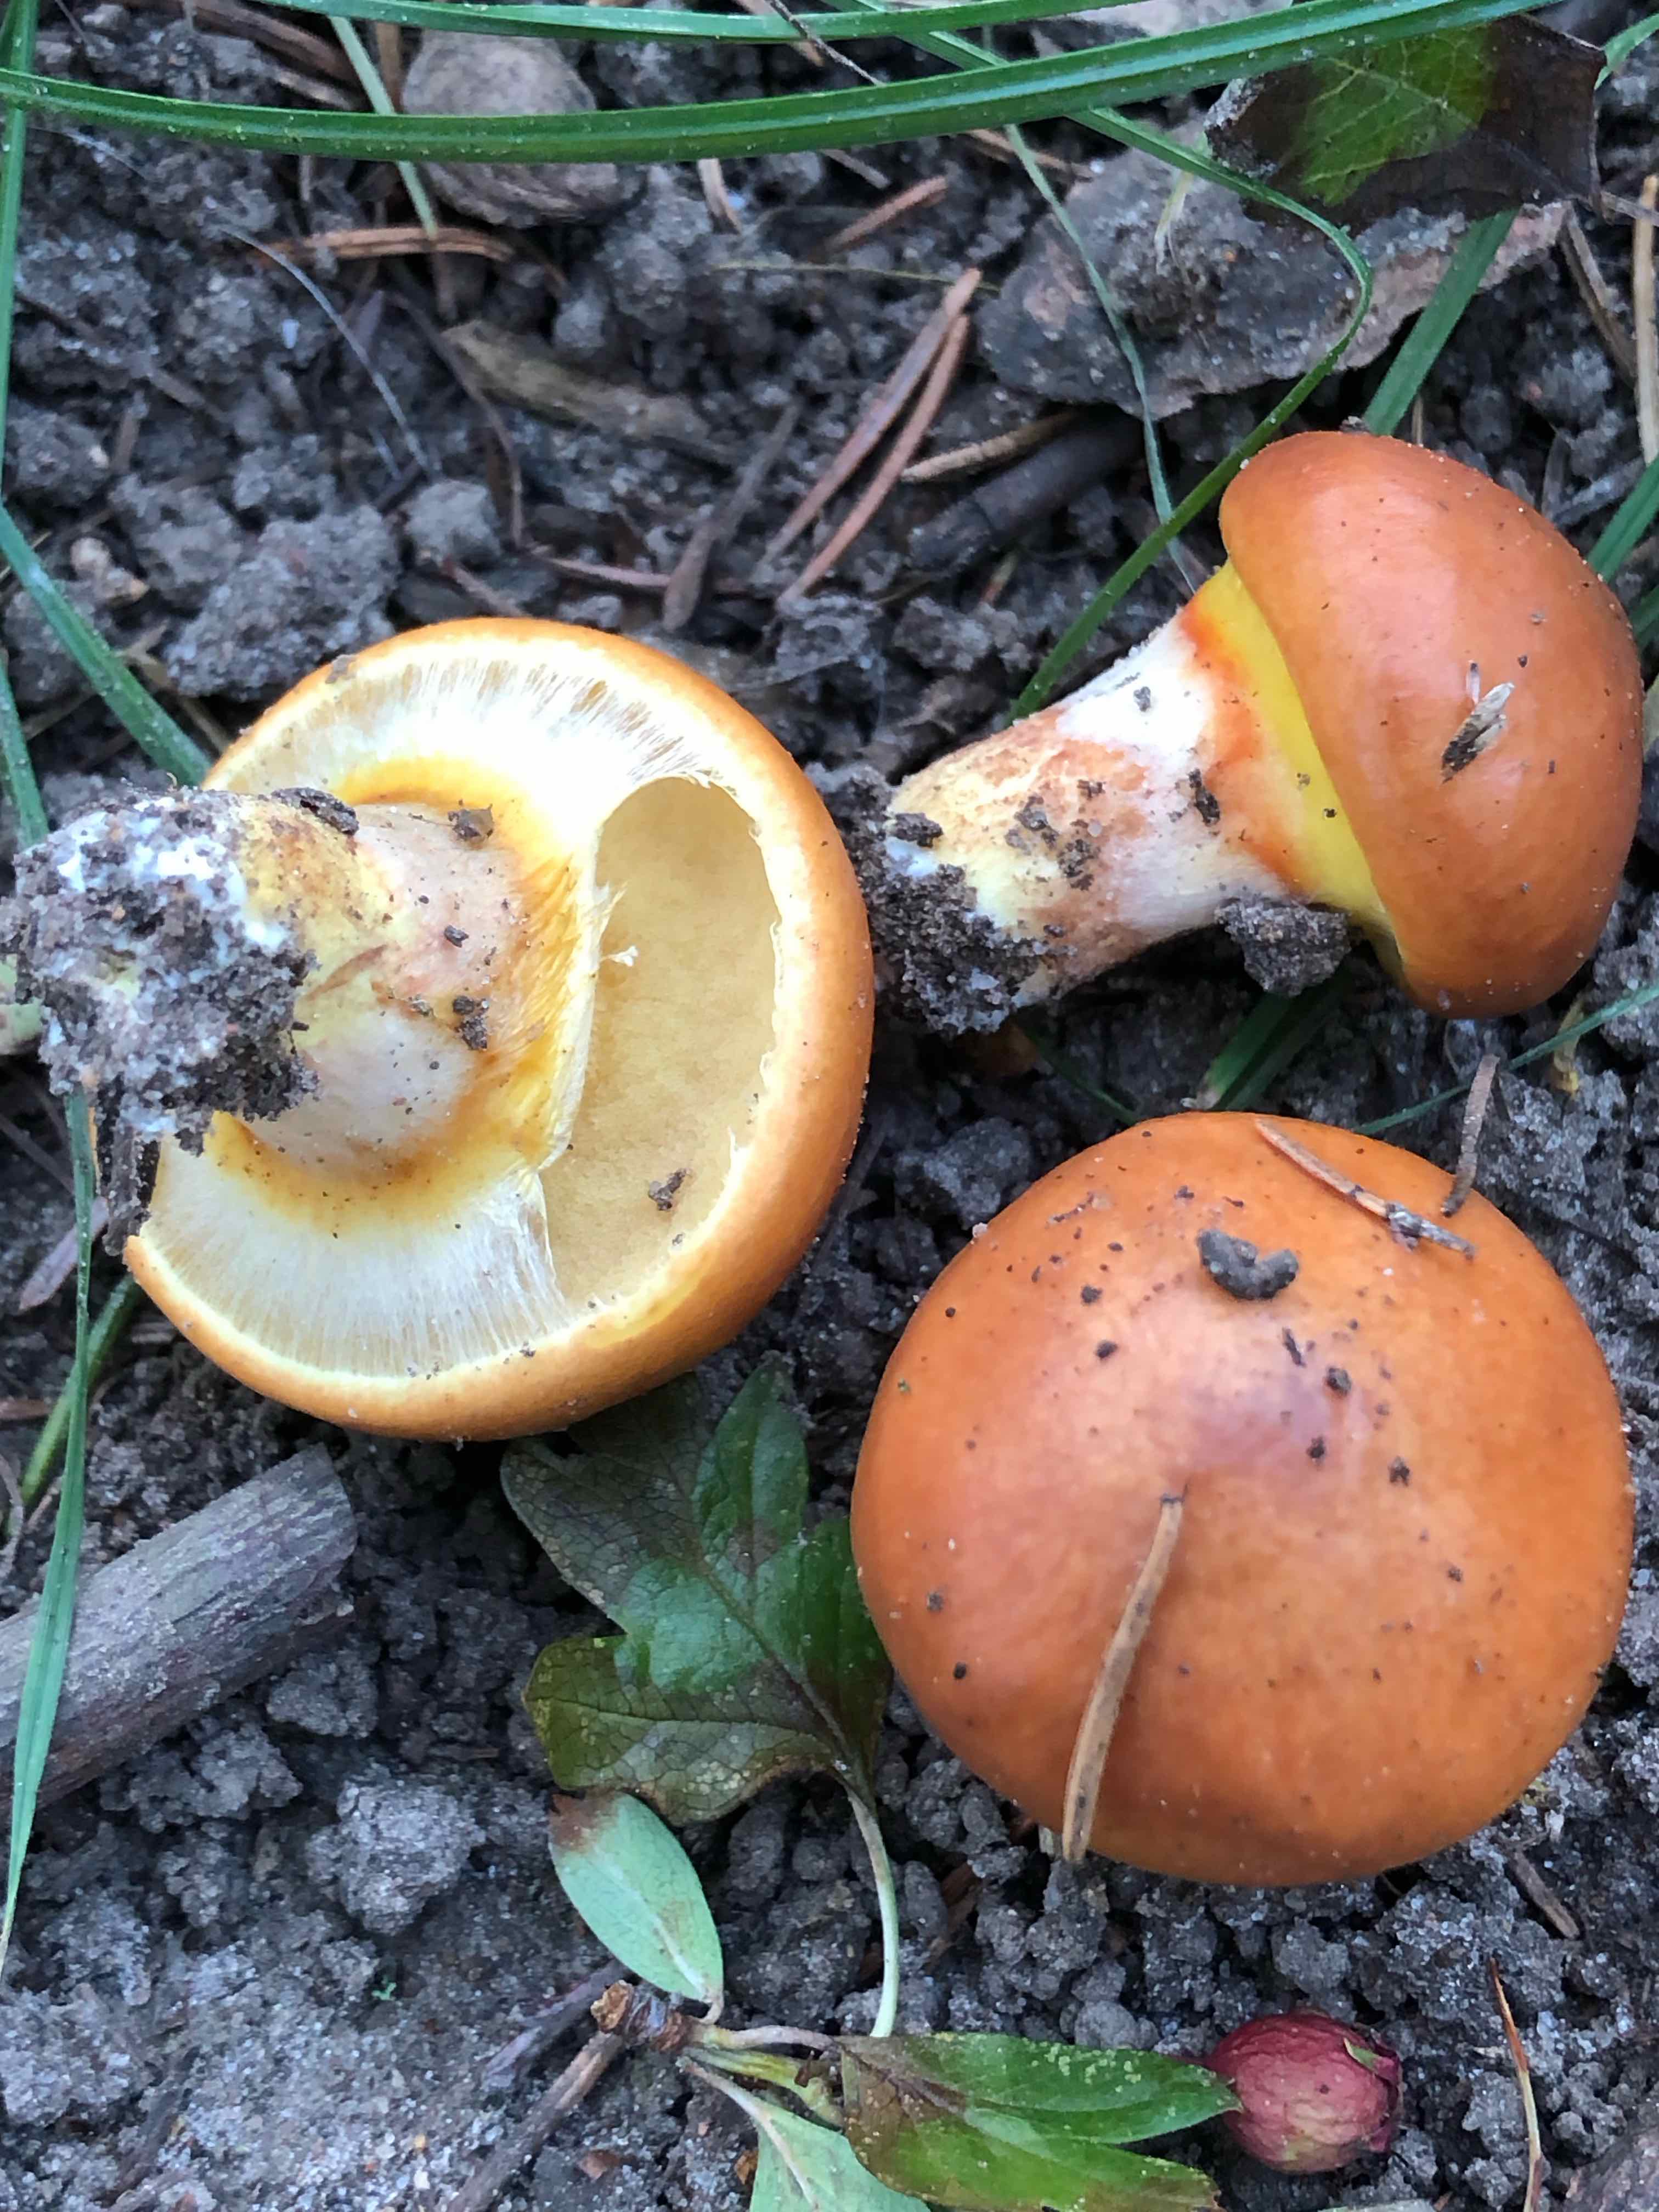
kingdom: Fungi
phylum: Basidiomycota
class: Agaricomycetes
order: Boletales
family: Suillaceae
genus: Suillus
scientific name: Suillus grevillei
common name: lærke-slimrørhat
